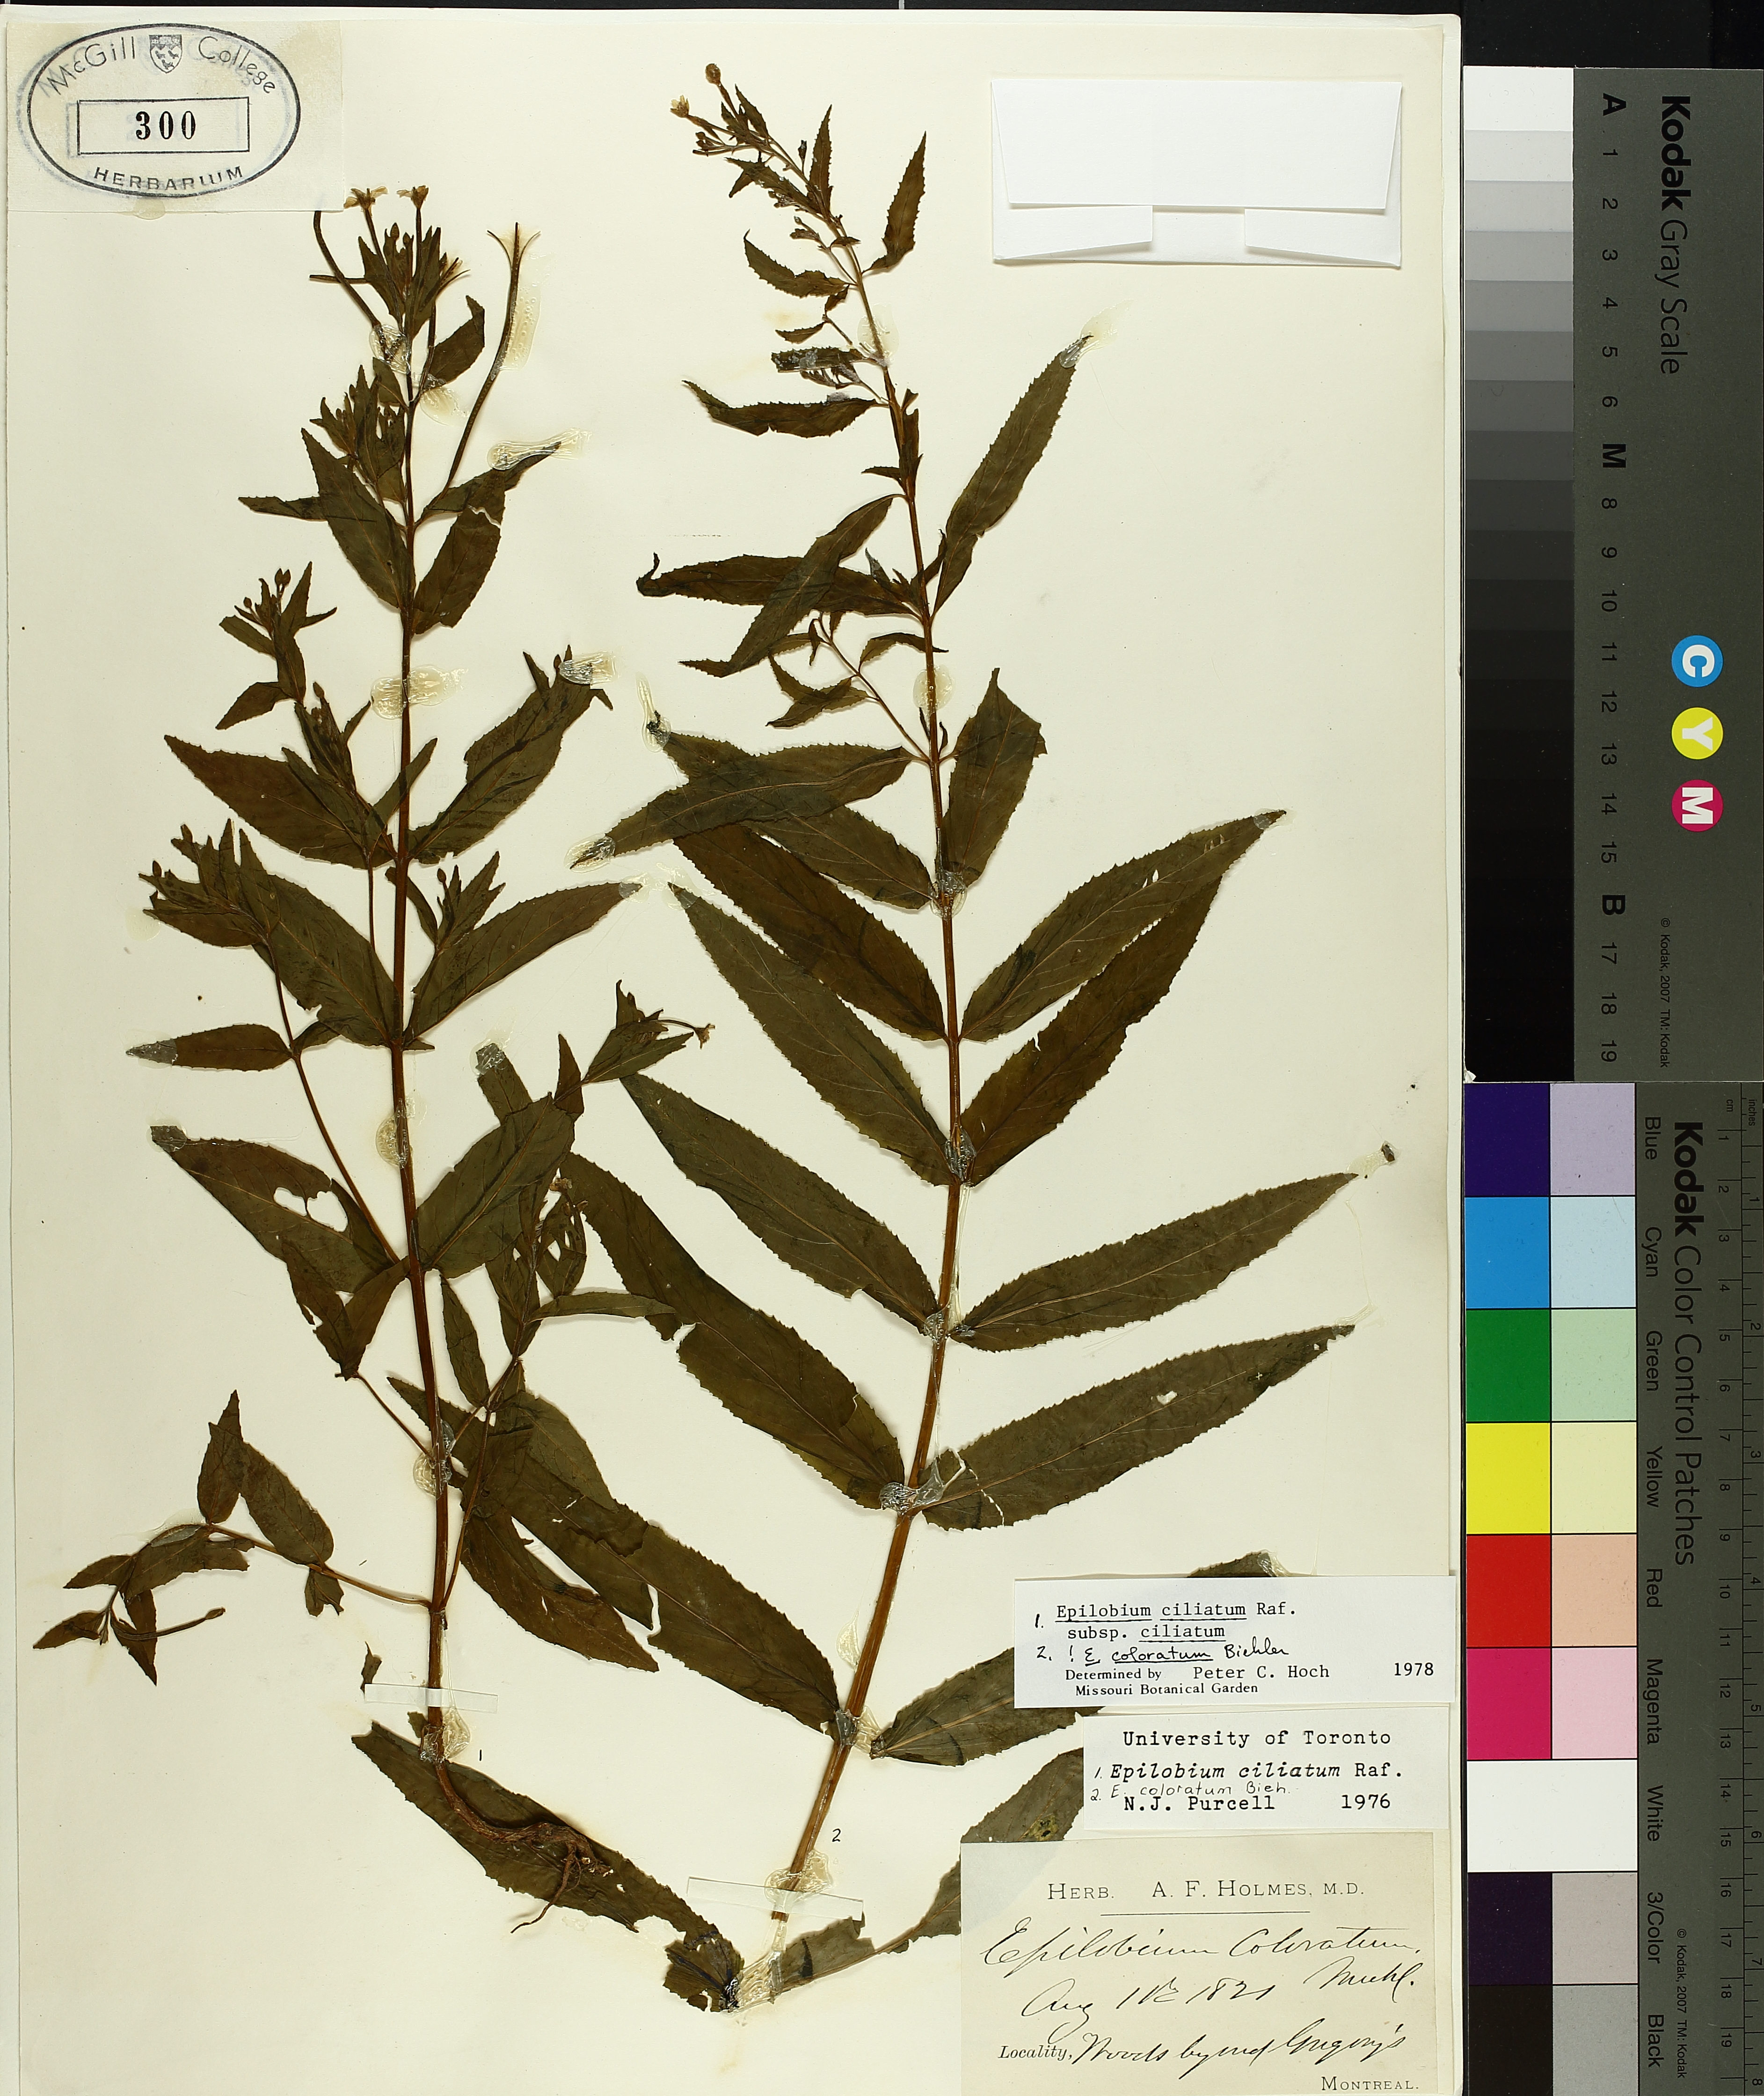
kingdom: Plantae
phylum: Tracheophyta
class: Magnoliopsida
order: Myrtales
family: Onagraceae
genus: Epilobium
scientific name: Epilobium ciliatum
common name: American willowherb
